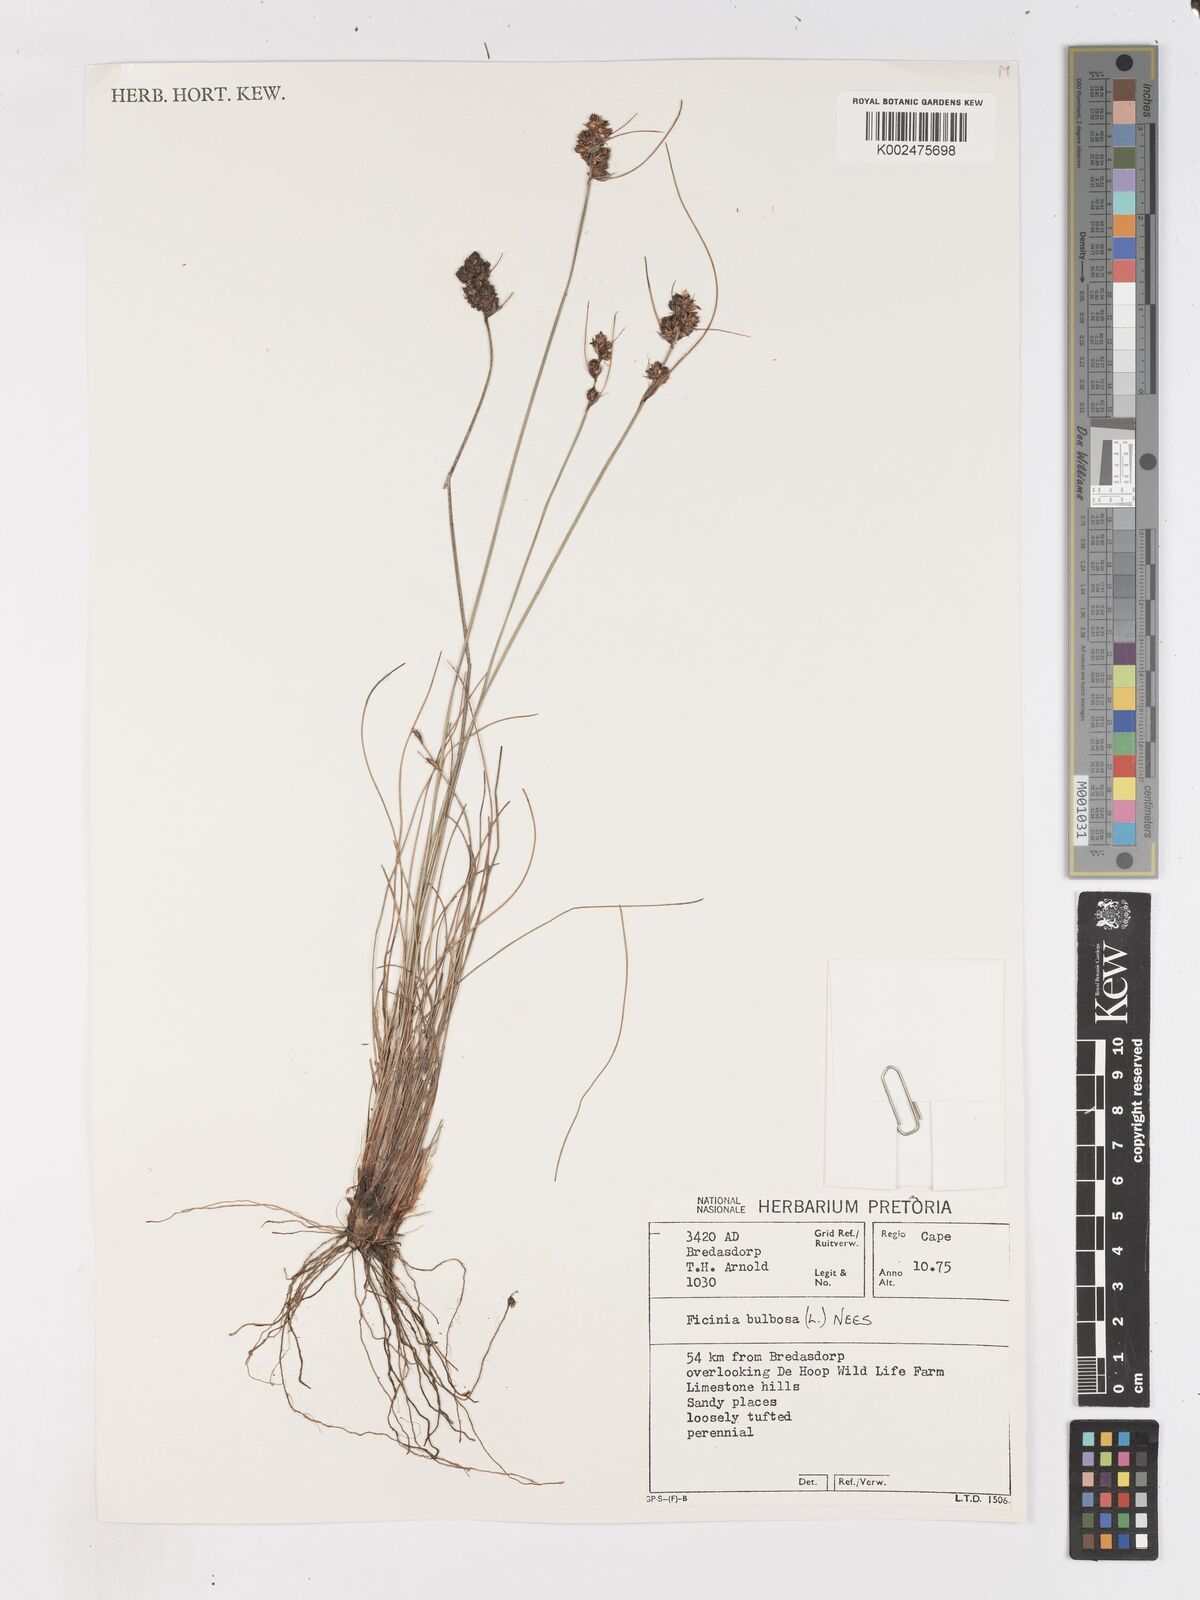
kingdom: Plantae
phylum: Tracheophyta
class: Liliopsida
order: Poales
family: Cyperaceae
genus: Ficinia
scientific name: Ficinia bulbosa
